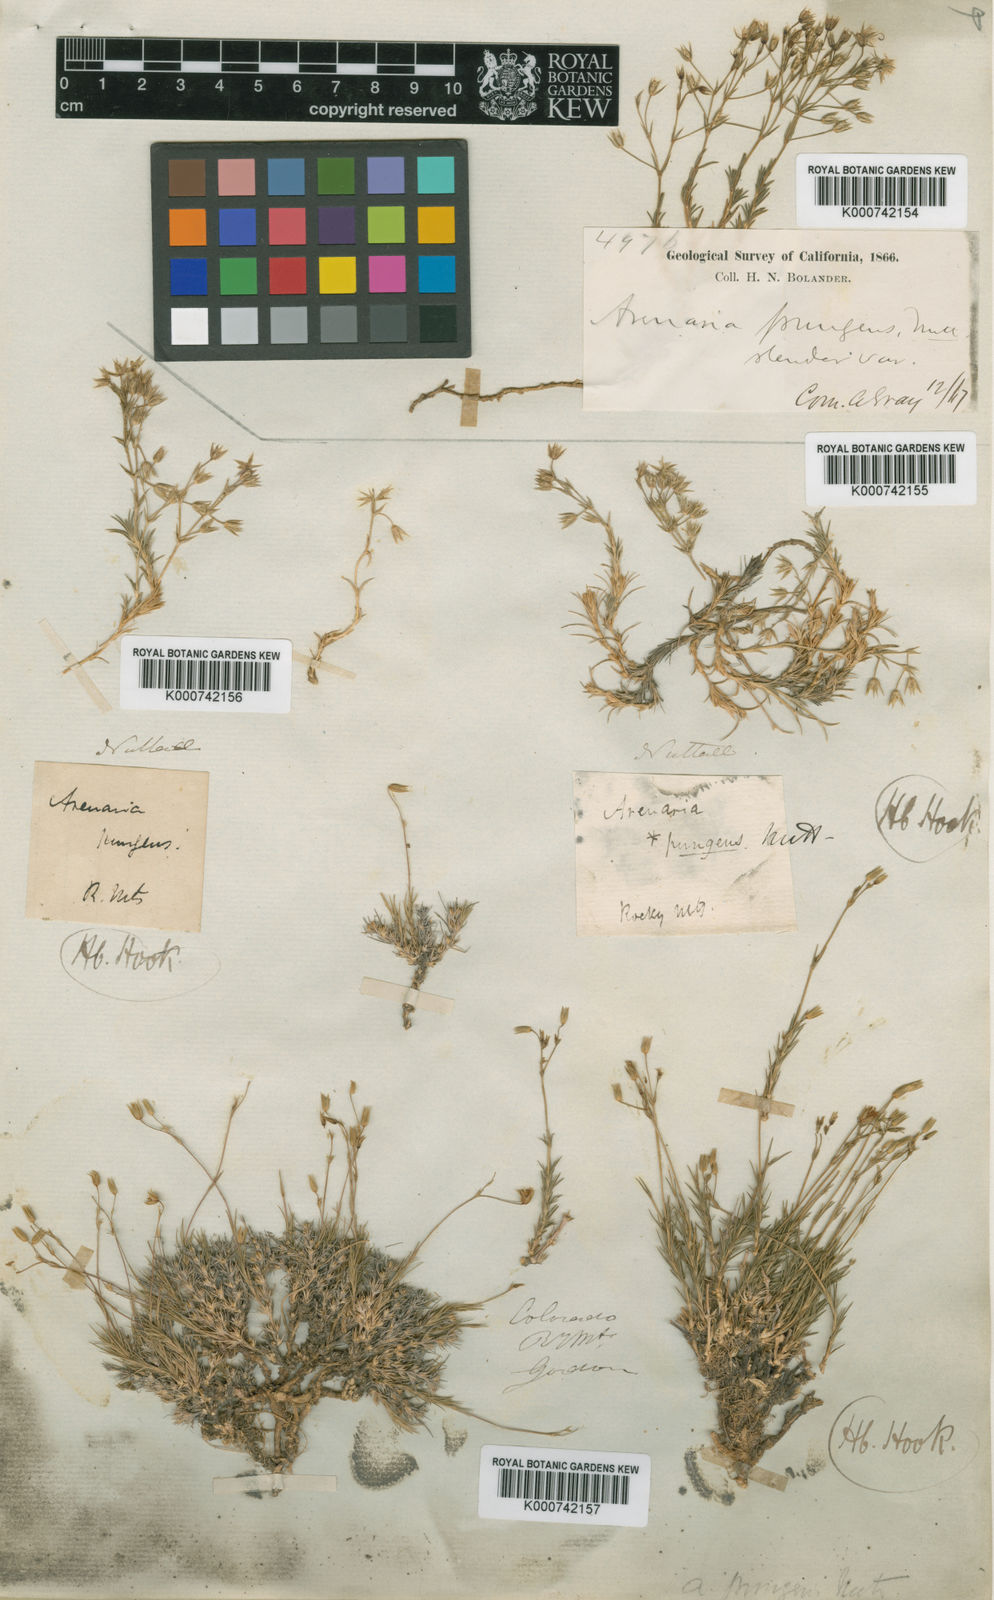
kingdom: Plantae
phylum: Tracheophyta
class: Magnoliopsida
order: Caryophyllales
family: Caryophyllaceae
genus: Sabulina
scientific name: Sabulina nuttallii
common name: Nuttall's stitchwort
